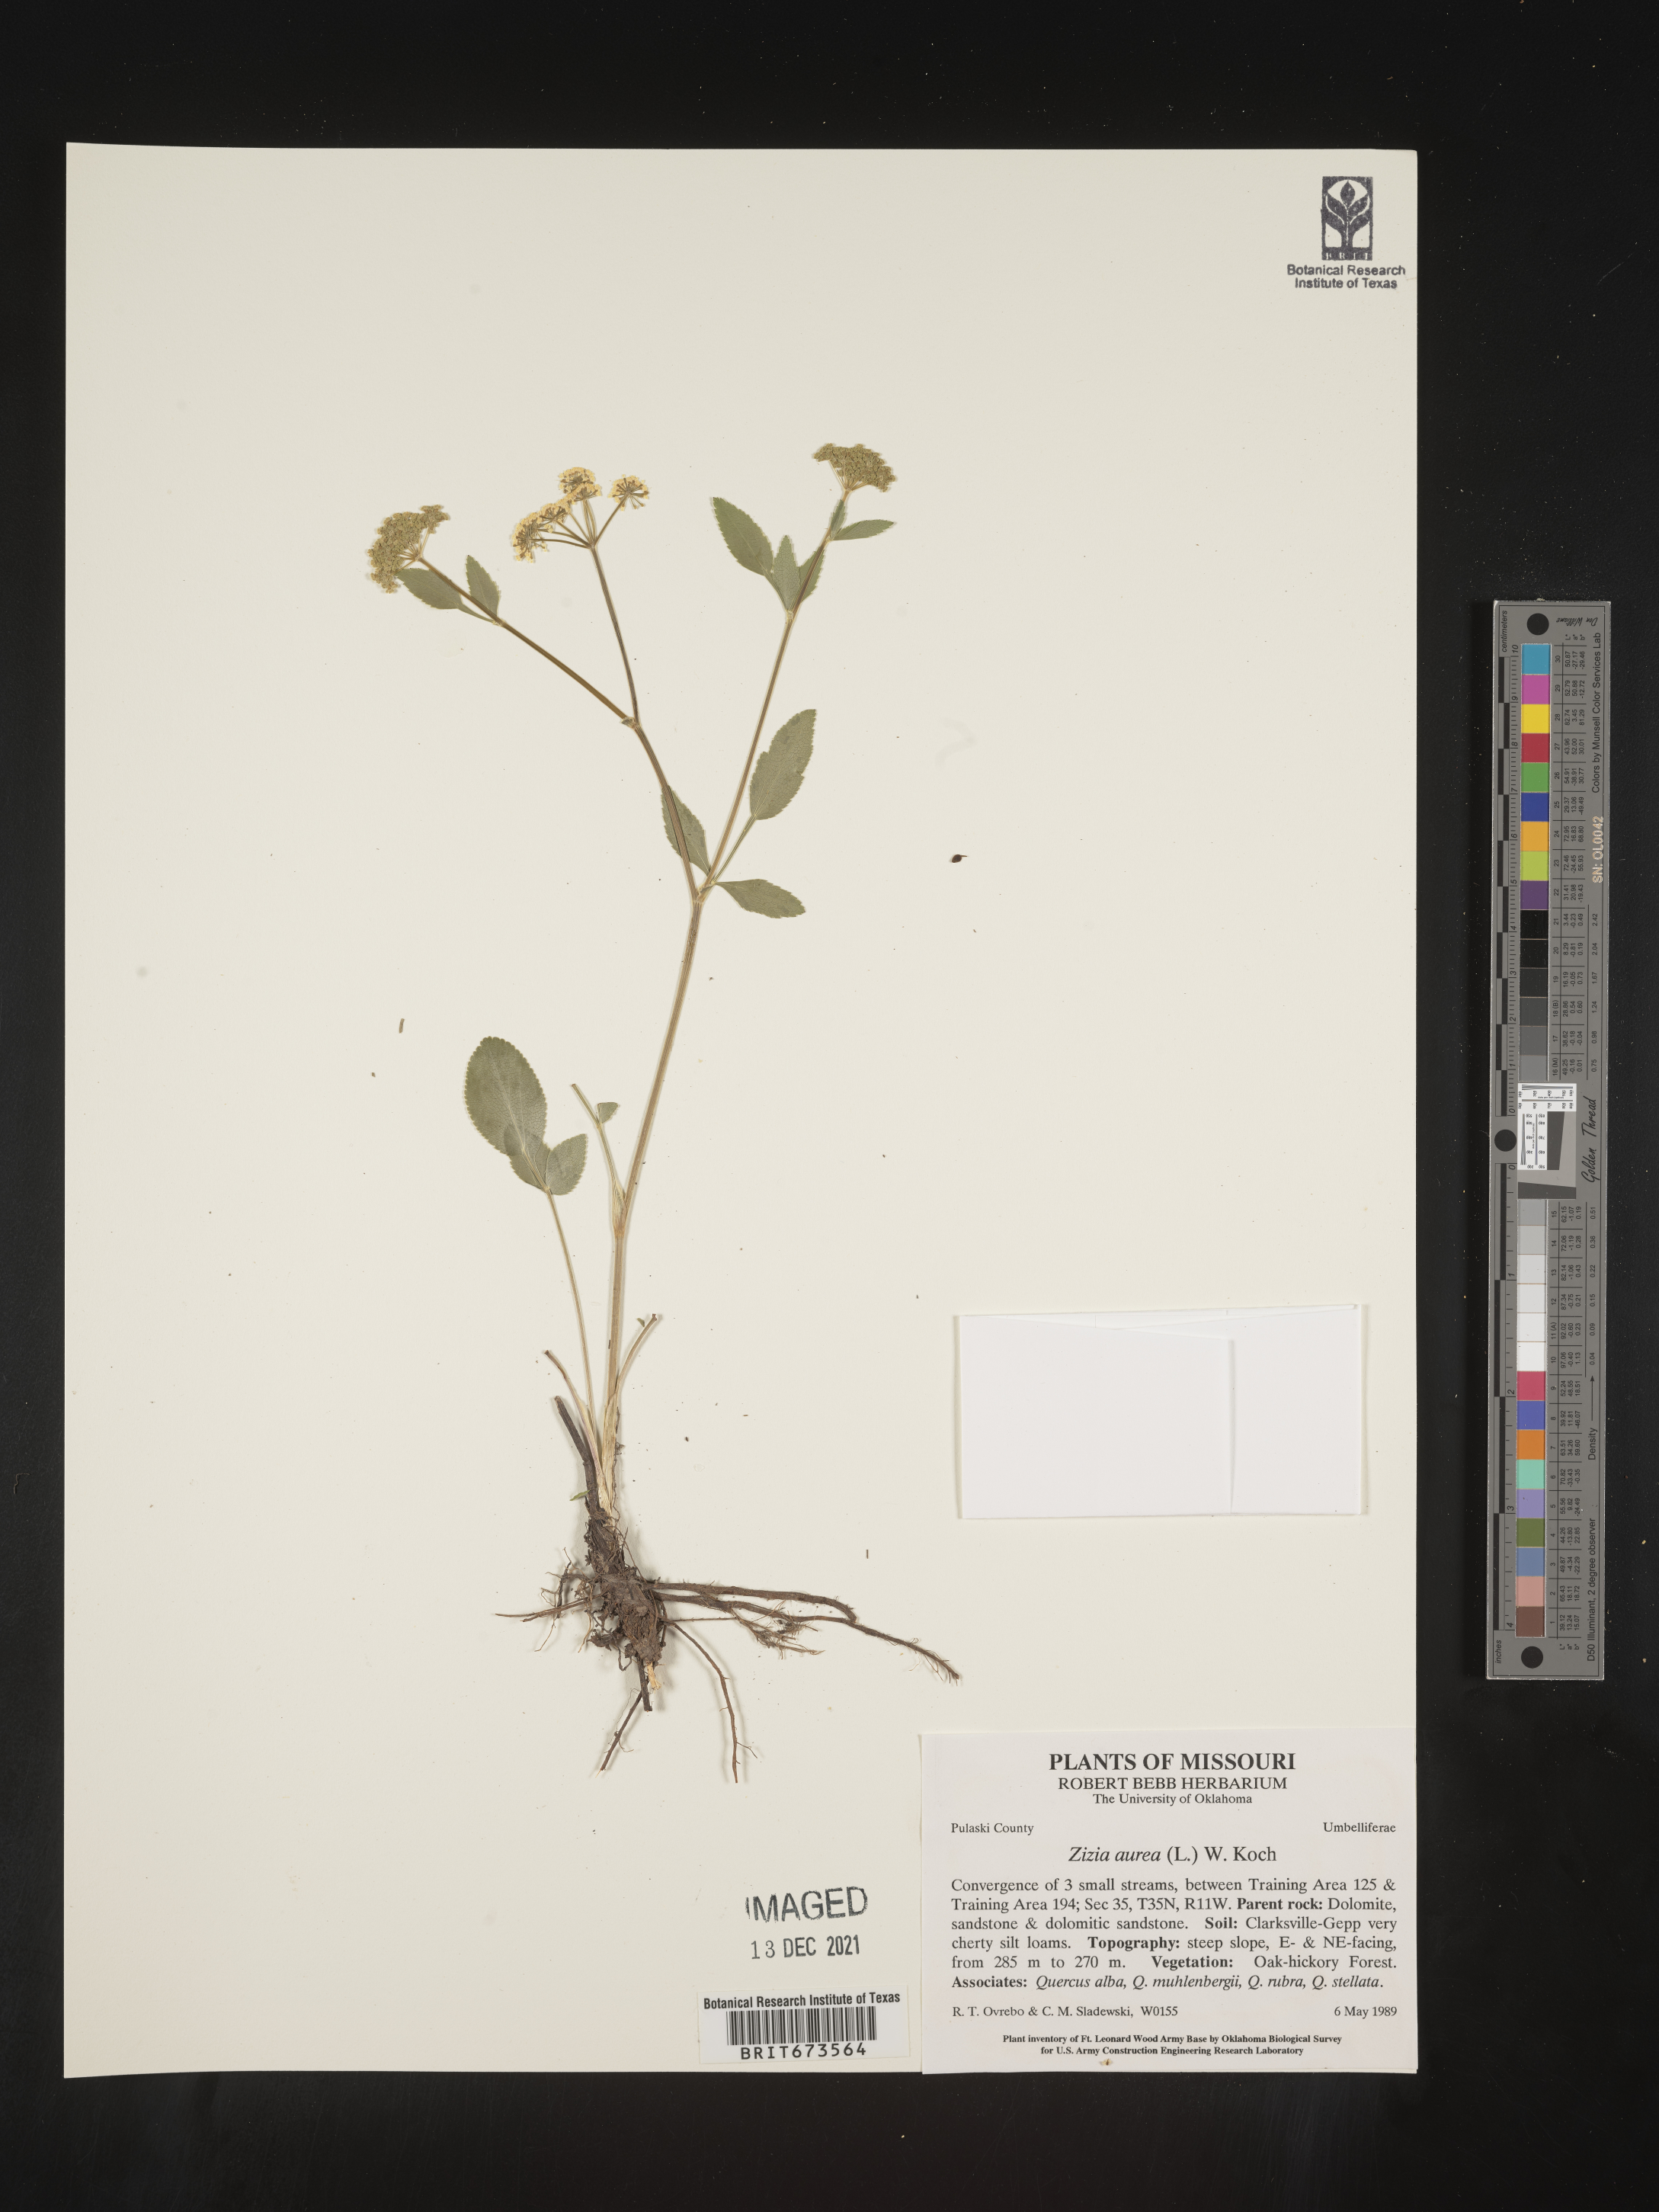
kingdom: Plantae
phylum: Tracheophyta
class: Magnoliopsida
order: Apiales
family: Apiaceae
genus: Zizia
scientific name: Zizia aurea
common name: Golden alexanders
